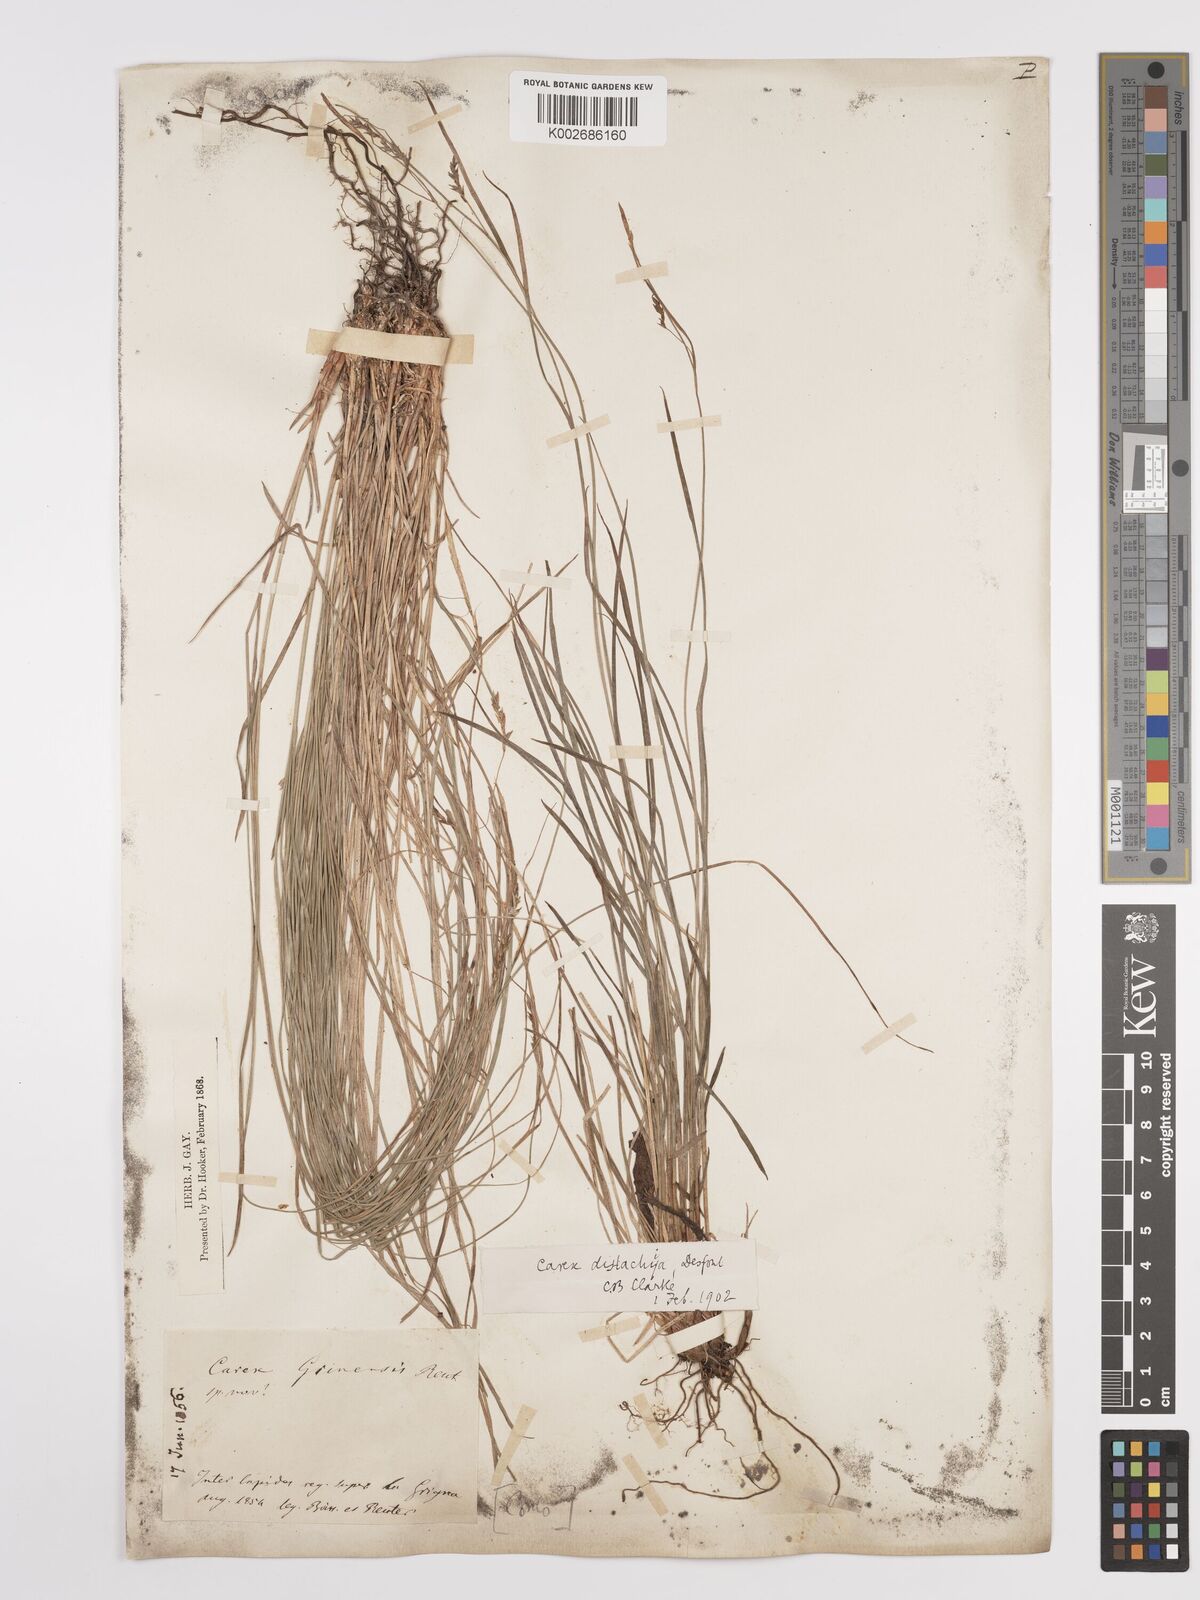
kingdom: Plantae
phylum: Tracheophyta
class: Liliopsida
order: Poales
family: Cyperaceae
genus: Carex
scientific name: Carex distachya
